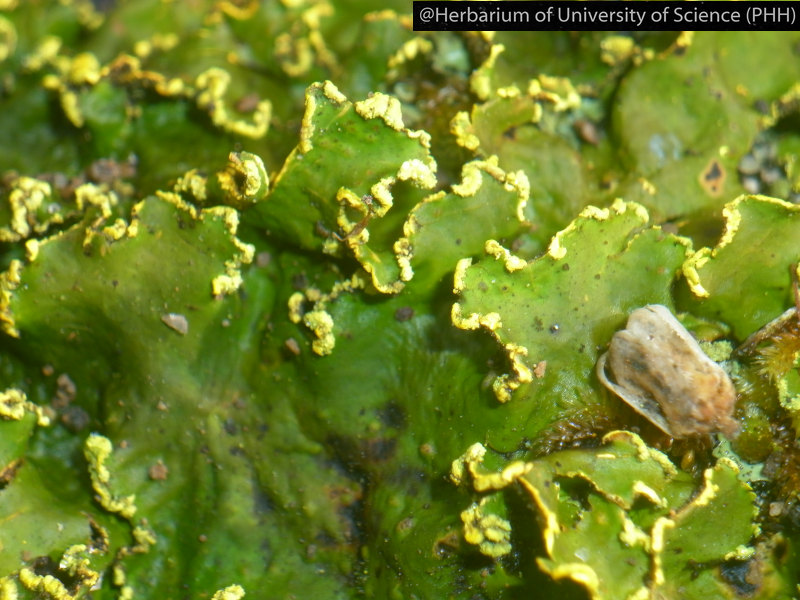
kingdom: Fungi
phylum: Ascomycota
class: Lecanoromycetes
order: Peltigerales
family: Lobariaceae
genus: Pseudocyphellaria
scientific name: Pseudocyphellaria aurata
